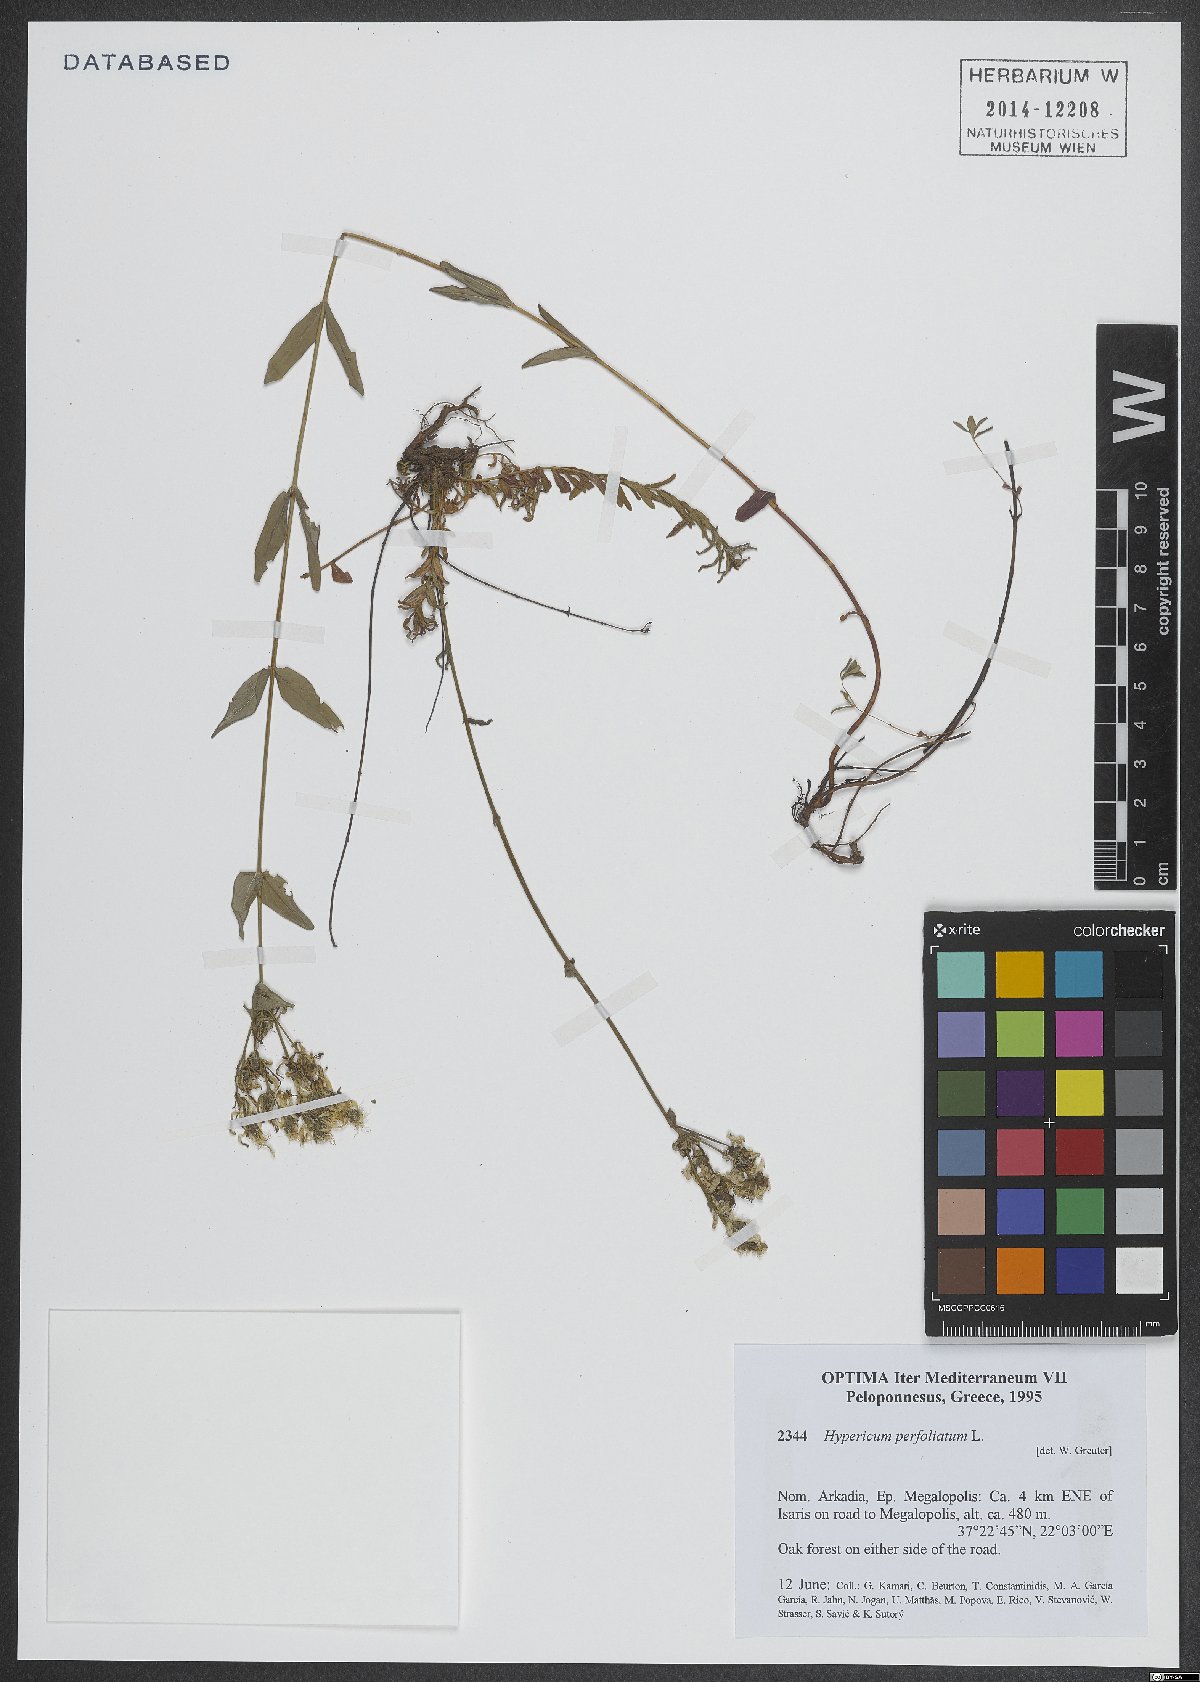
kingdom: Plantae
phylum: Tracheophyta
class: Magnoliopsida
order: Malpighiales
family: Hypericaceae
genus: Hypericum
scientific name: Hypericum perfoliatum
